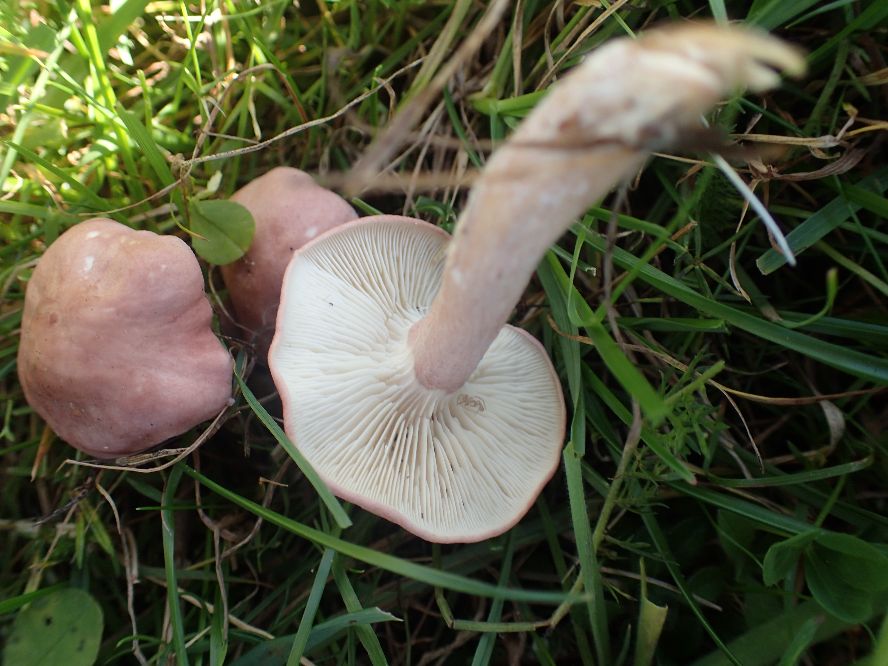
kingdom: Fungi
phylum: Basidiomycota
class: Agaricomycetes
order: Agaricales
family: Lyophyllaceae
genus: Calocybe
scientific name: Calocybe carnea
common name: rosa fagerhat
